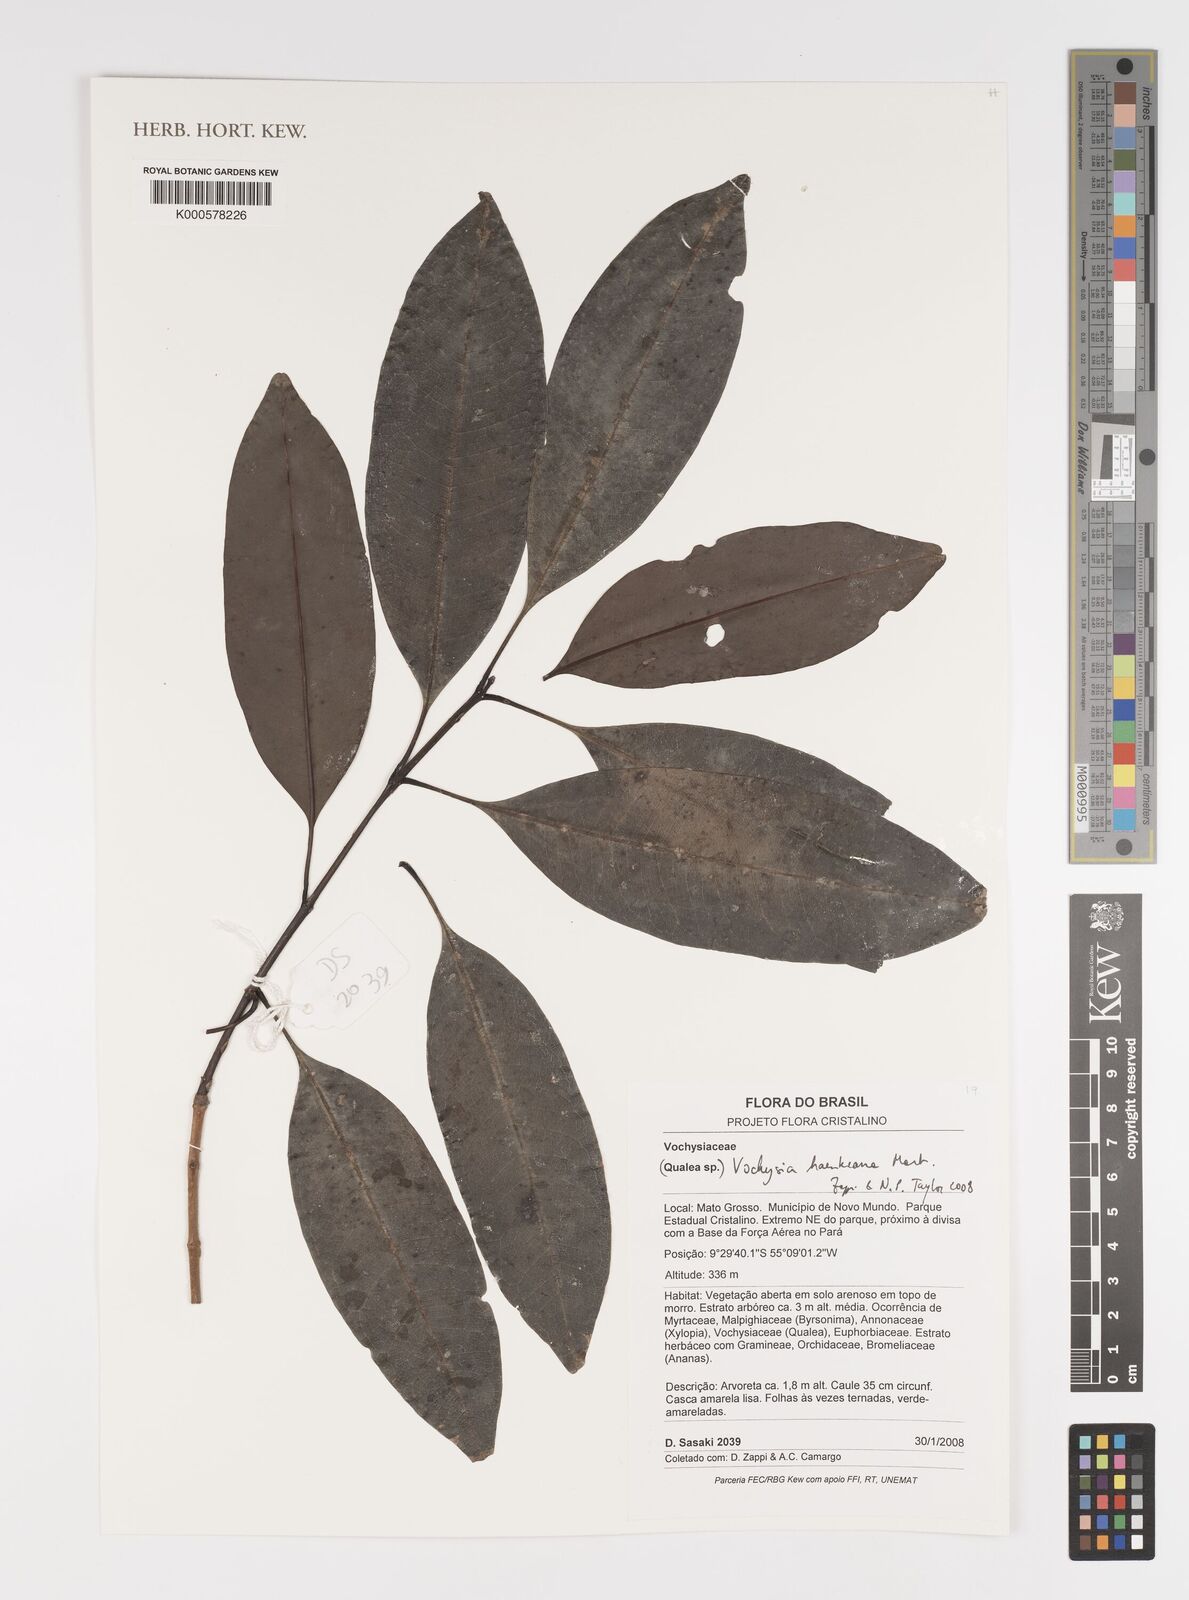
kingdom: Plantae
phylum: Tracheophyta
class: Magnoliopsida
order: Myrtales
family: Vochysiaceae
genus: Vochysia
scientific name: Vochysia haenkeana
